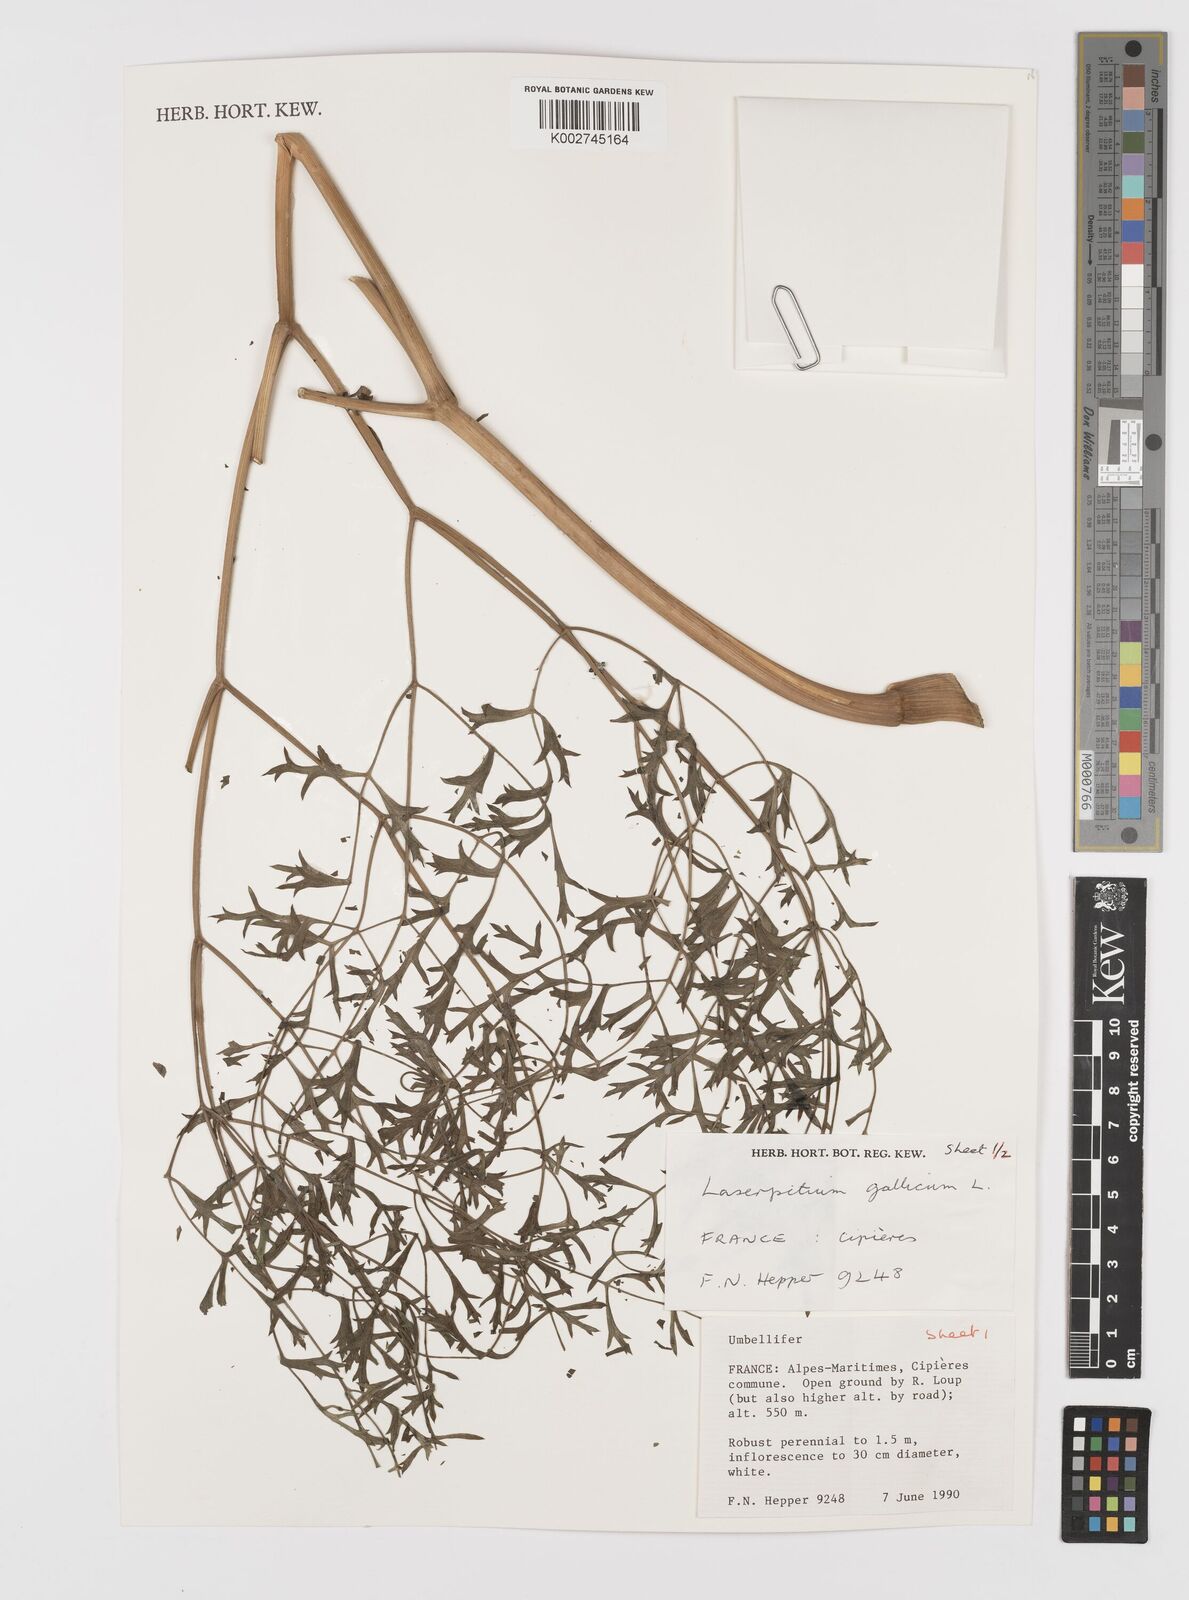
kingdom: Plantae
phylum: Tracheophyta
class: Magnoliopsida
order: Apiales
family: Apiaceae
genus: Laserpitium
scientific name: Laserpitium gallicum
